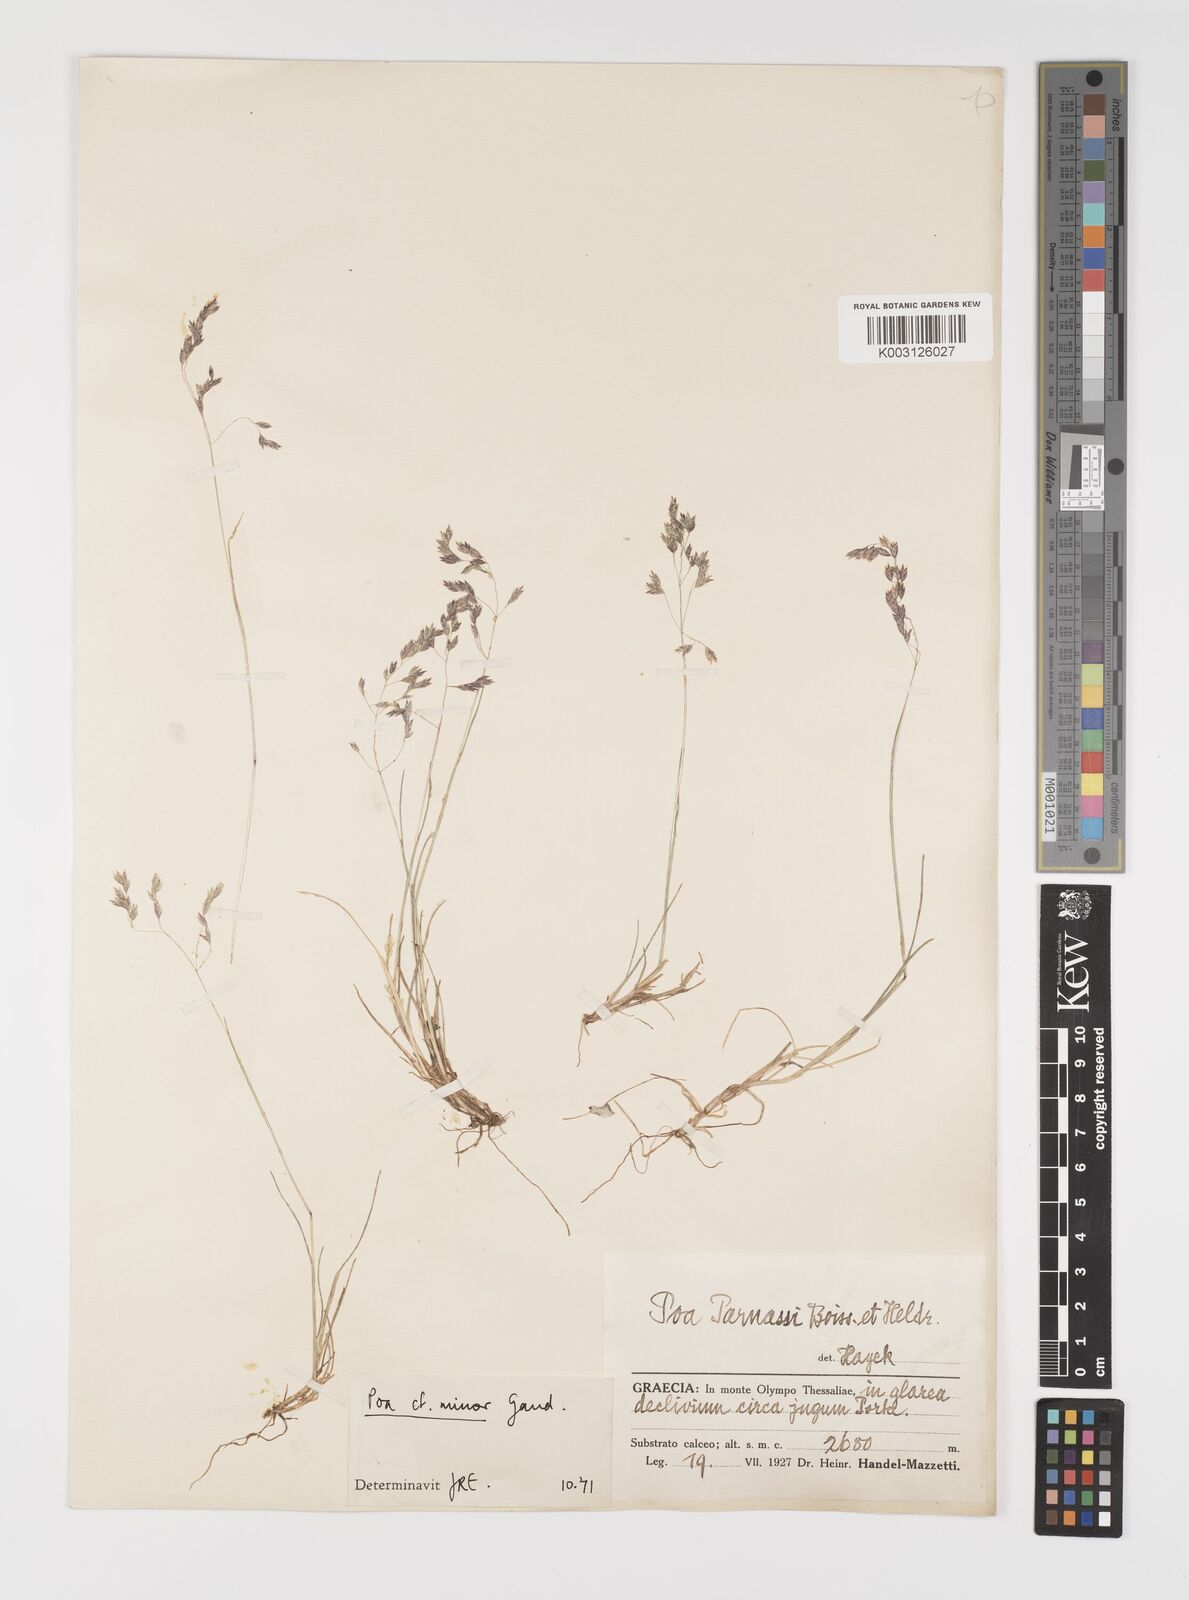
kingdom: Plantae
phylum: Tracheophyta
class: Liliopsida
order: Poales
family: Poaceae
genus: Poa
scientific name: Poa minor
